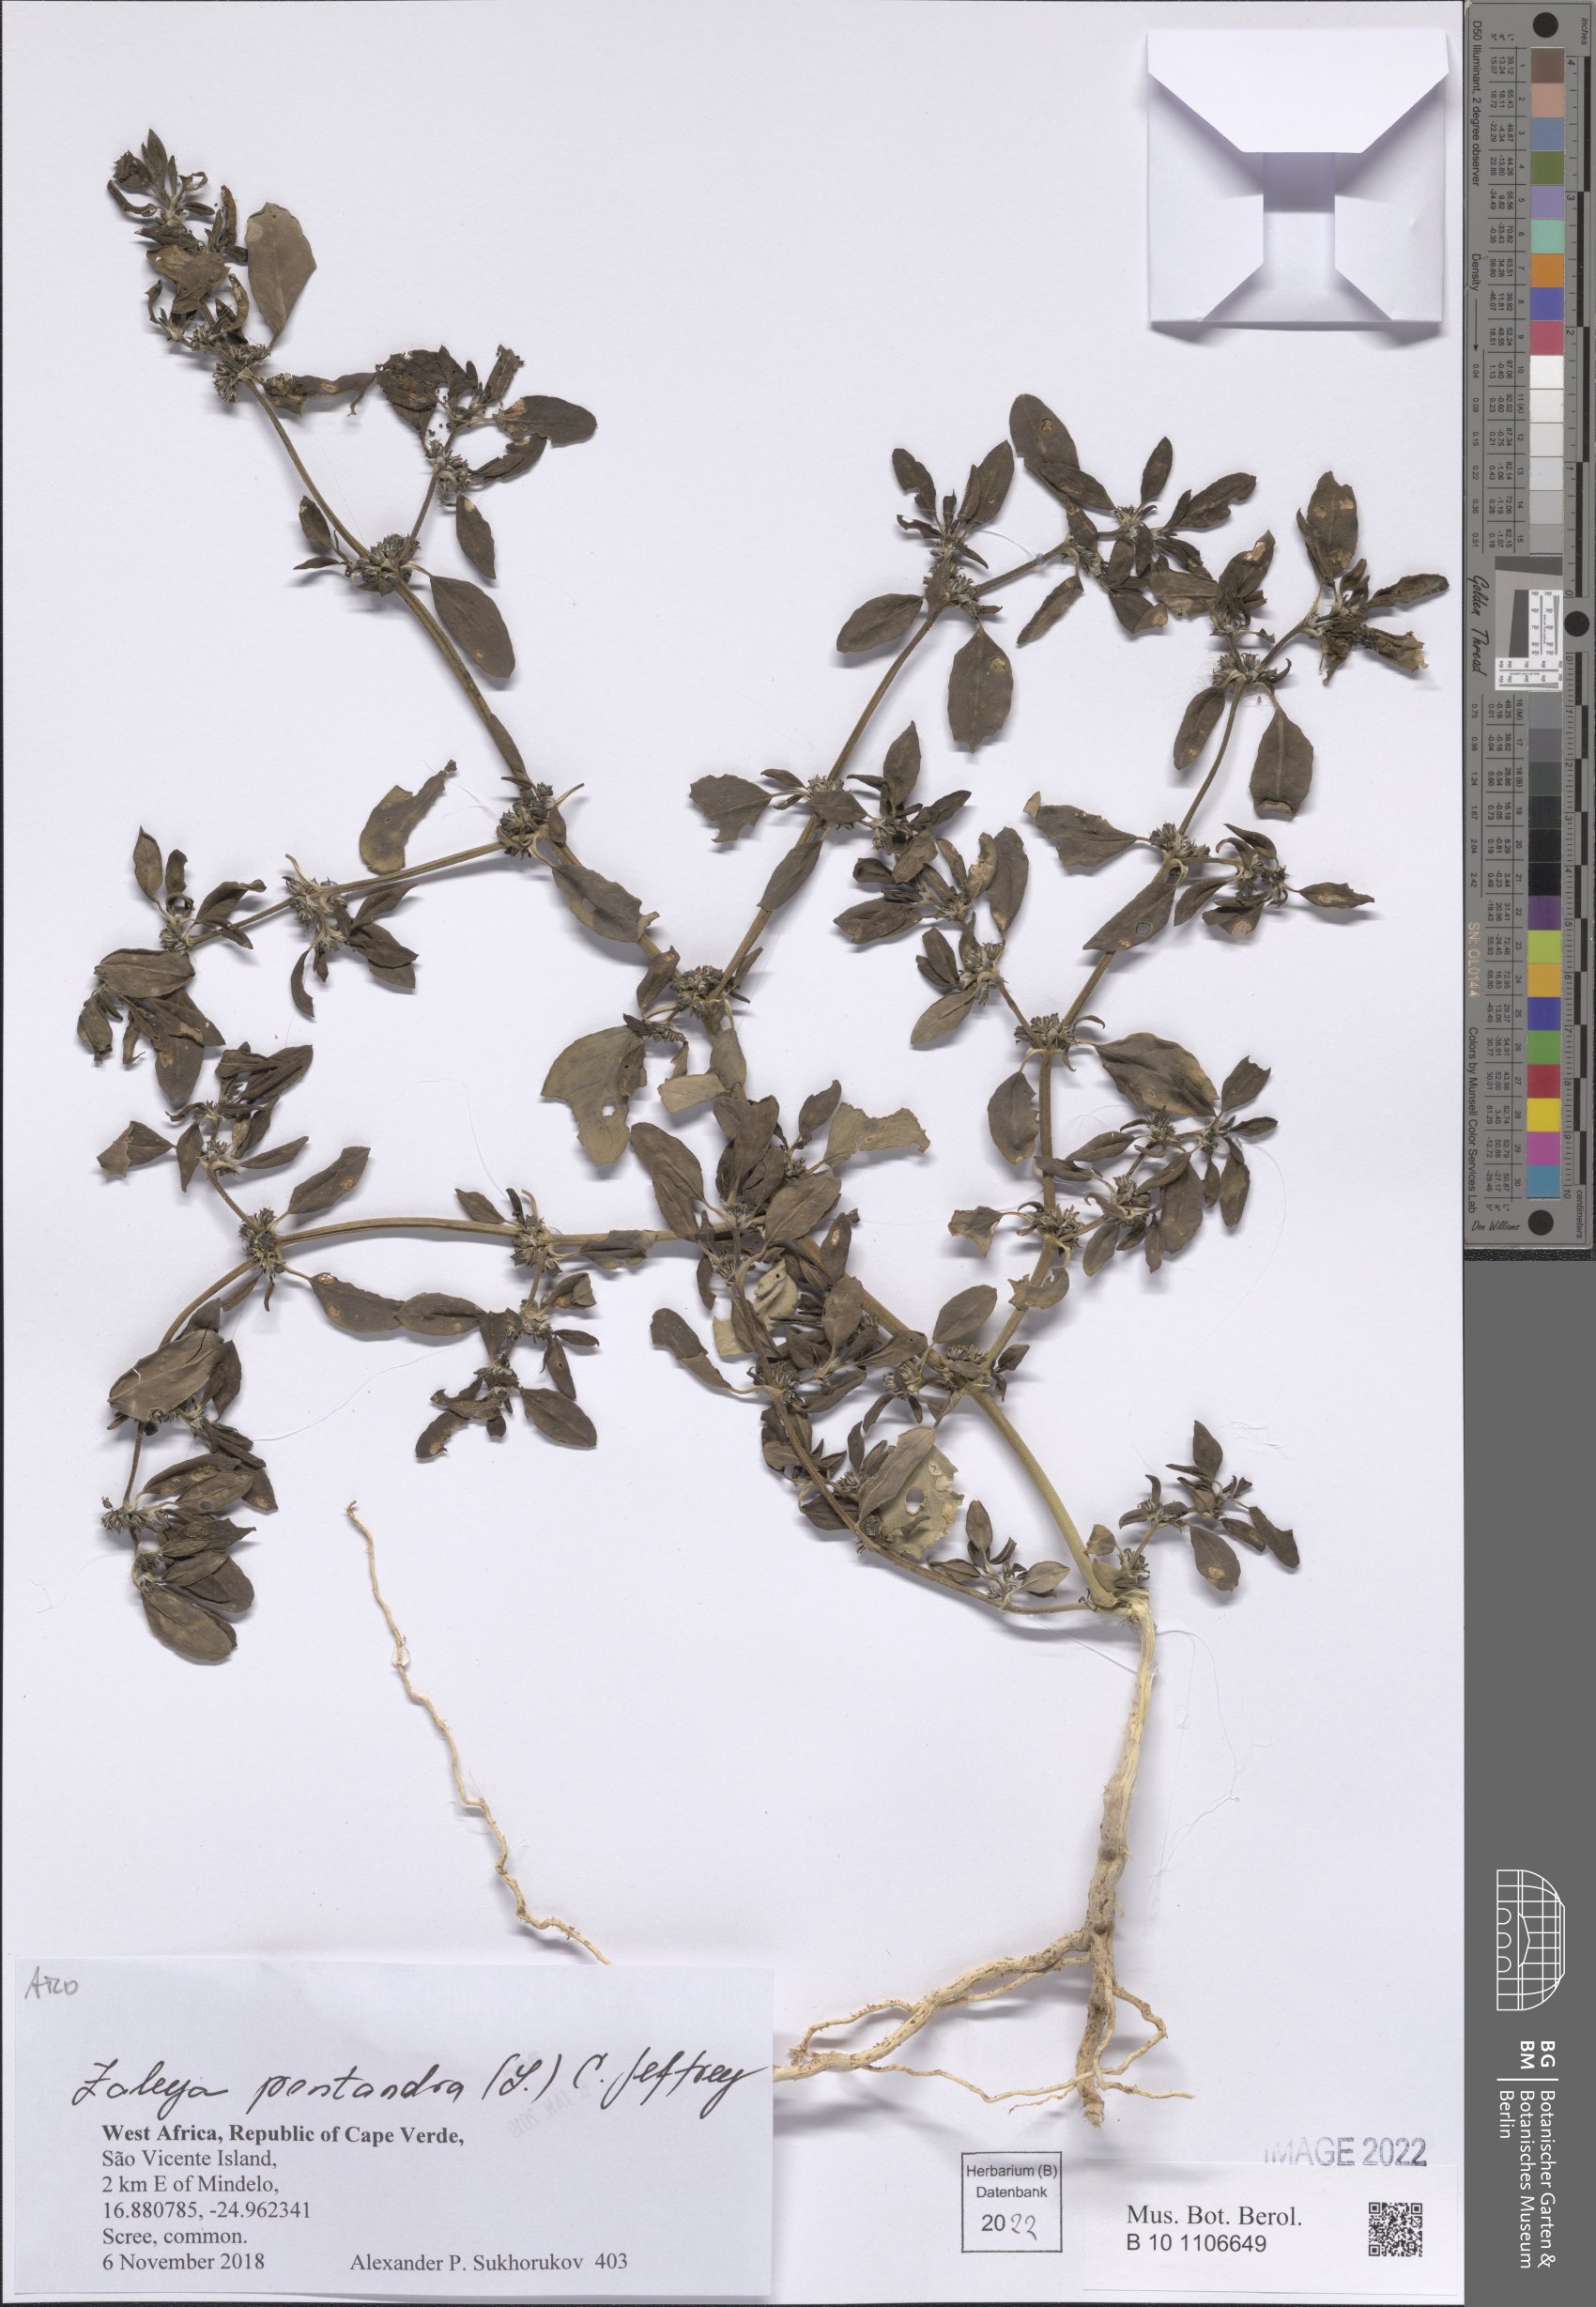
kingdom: Plantae
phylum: Tracheophyta
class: Magnoliopsida
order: Caryophyllales
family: Aizoaceae
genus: Zaleya
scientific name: Zaleya pentandra
